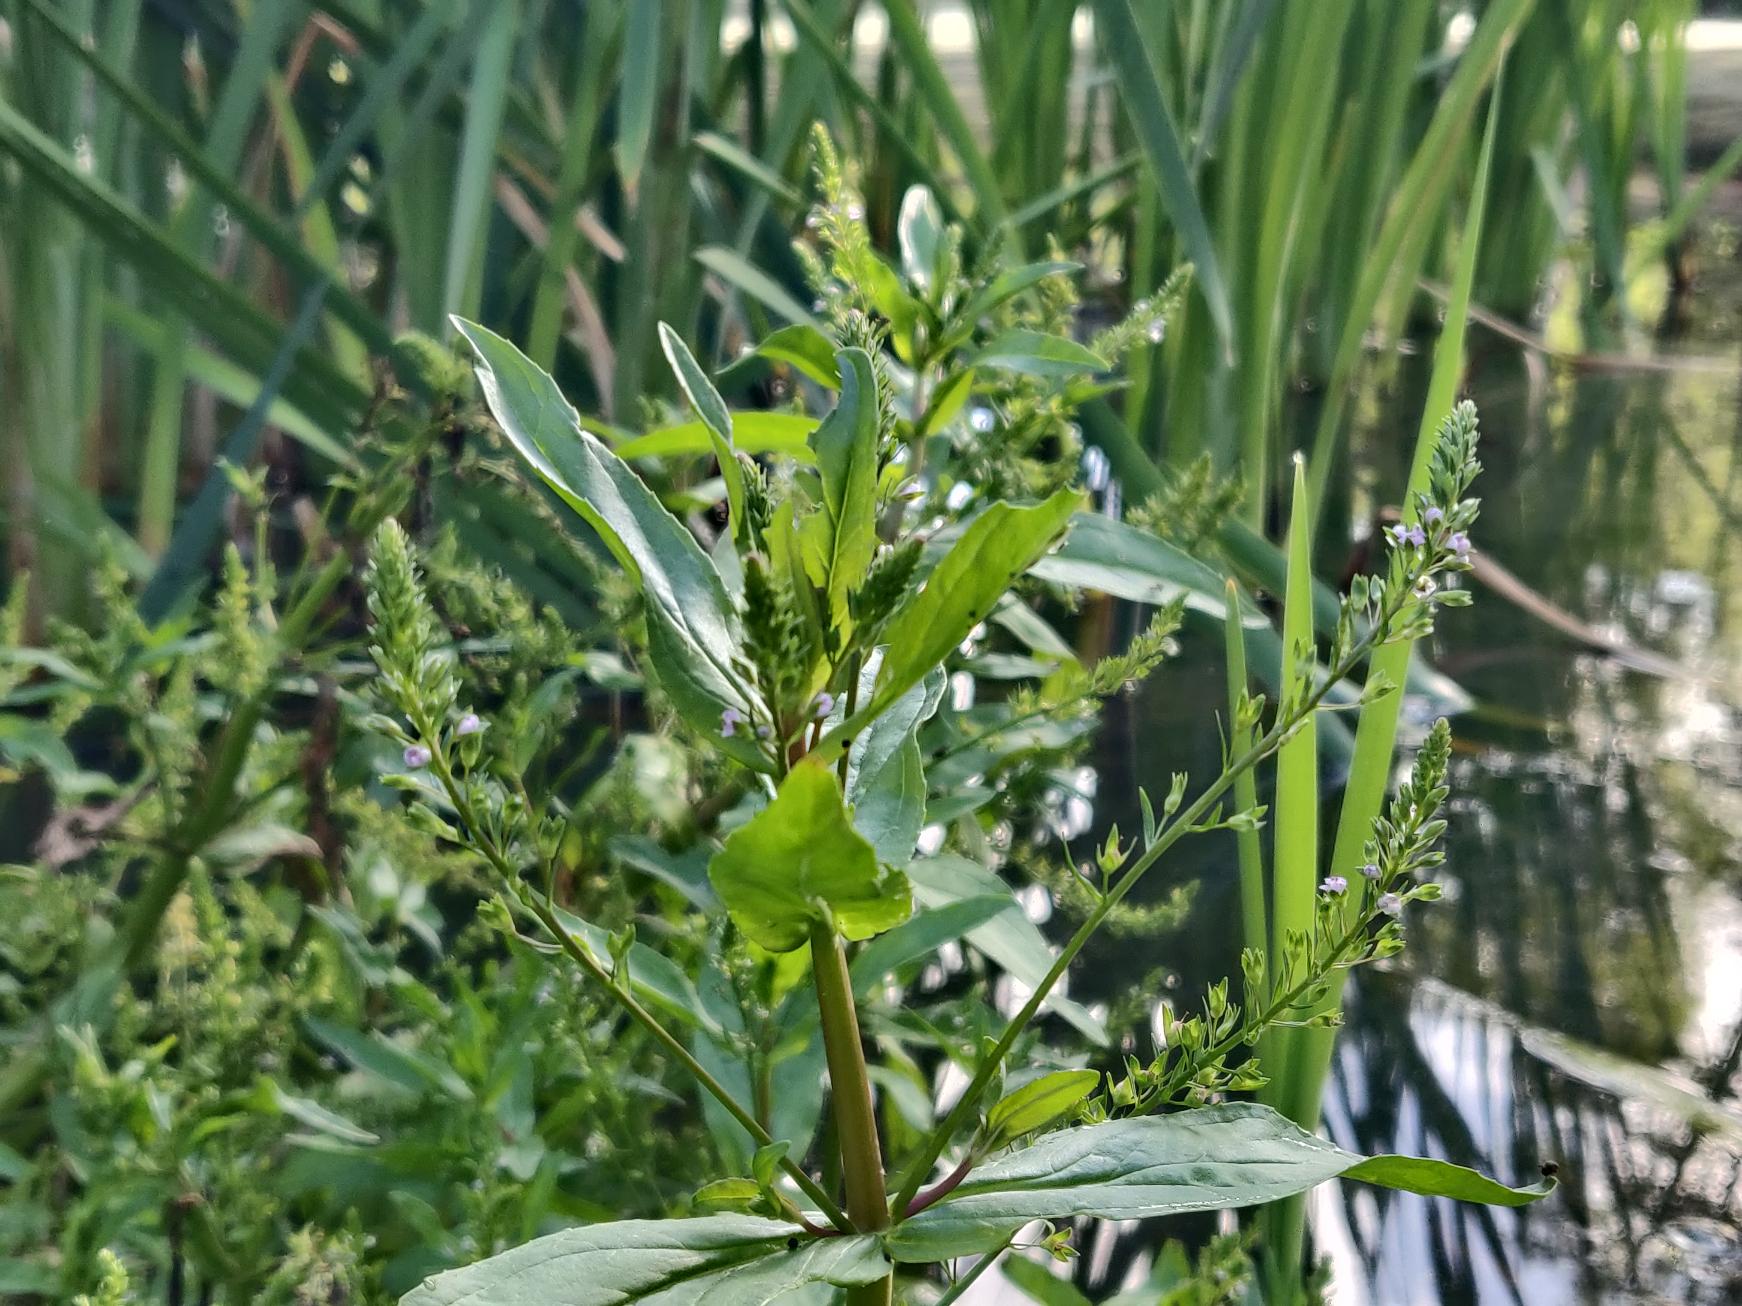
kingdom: Plantae
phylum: Tracheophyta
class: Magnoliopsida
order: Lamiales
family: Plantaginaceae
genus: Veronica
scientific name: Veronica anagallis-aquatica
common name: Lancetbladet ærenpris
